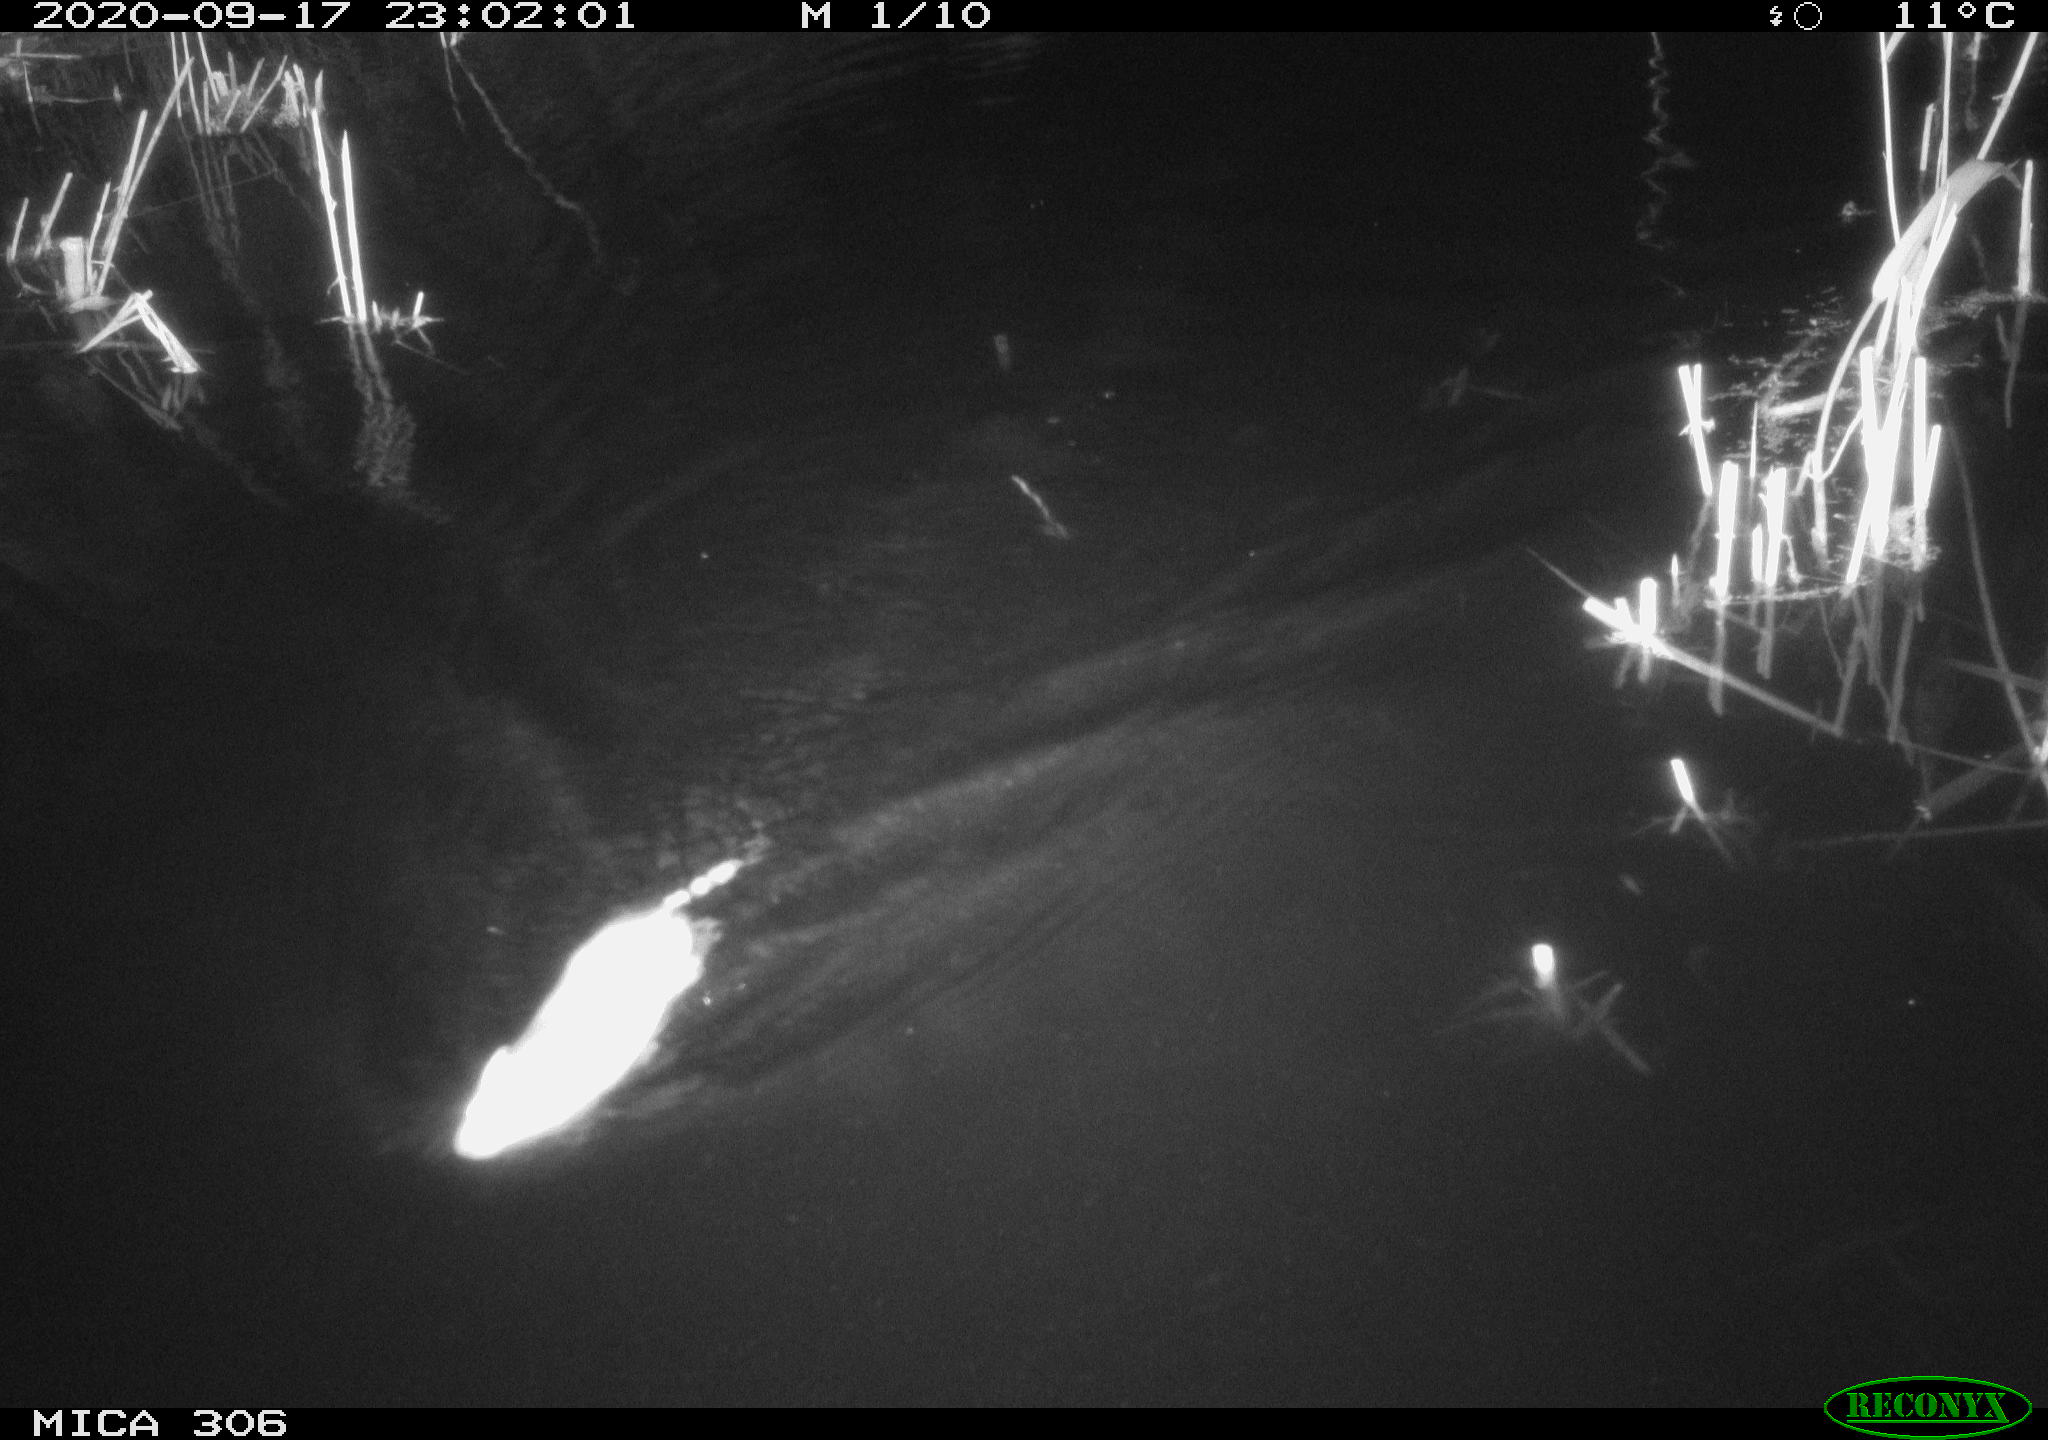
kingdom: Animalia
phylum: Chordata
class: Mammalia
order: Rodentia
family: Muridae
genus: Rattus
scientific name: Rattus norvegicus
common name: Brown rat
